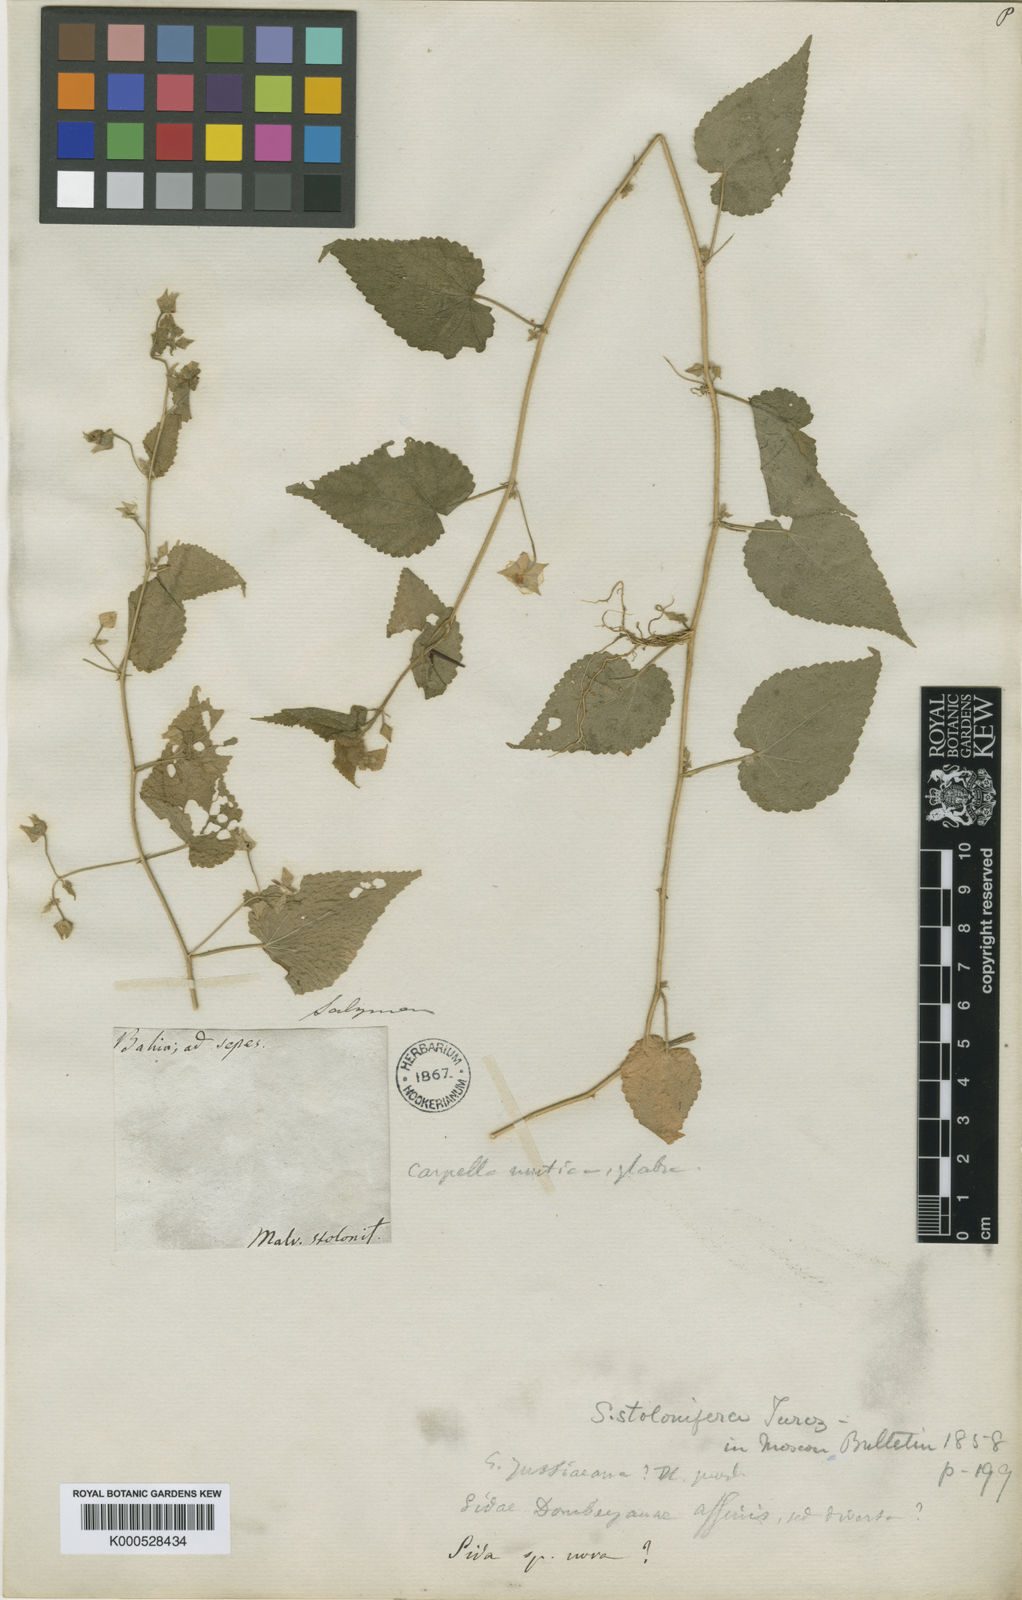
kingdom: Plantae
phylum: Tracheophyta
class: Magnoliopsida
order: Malvales
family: Malvaceae
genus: Sida
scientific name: Sida jussieana
